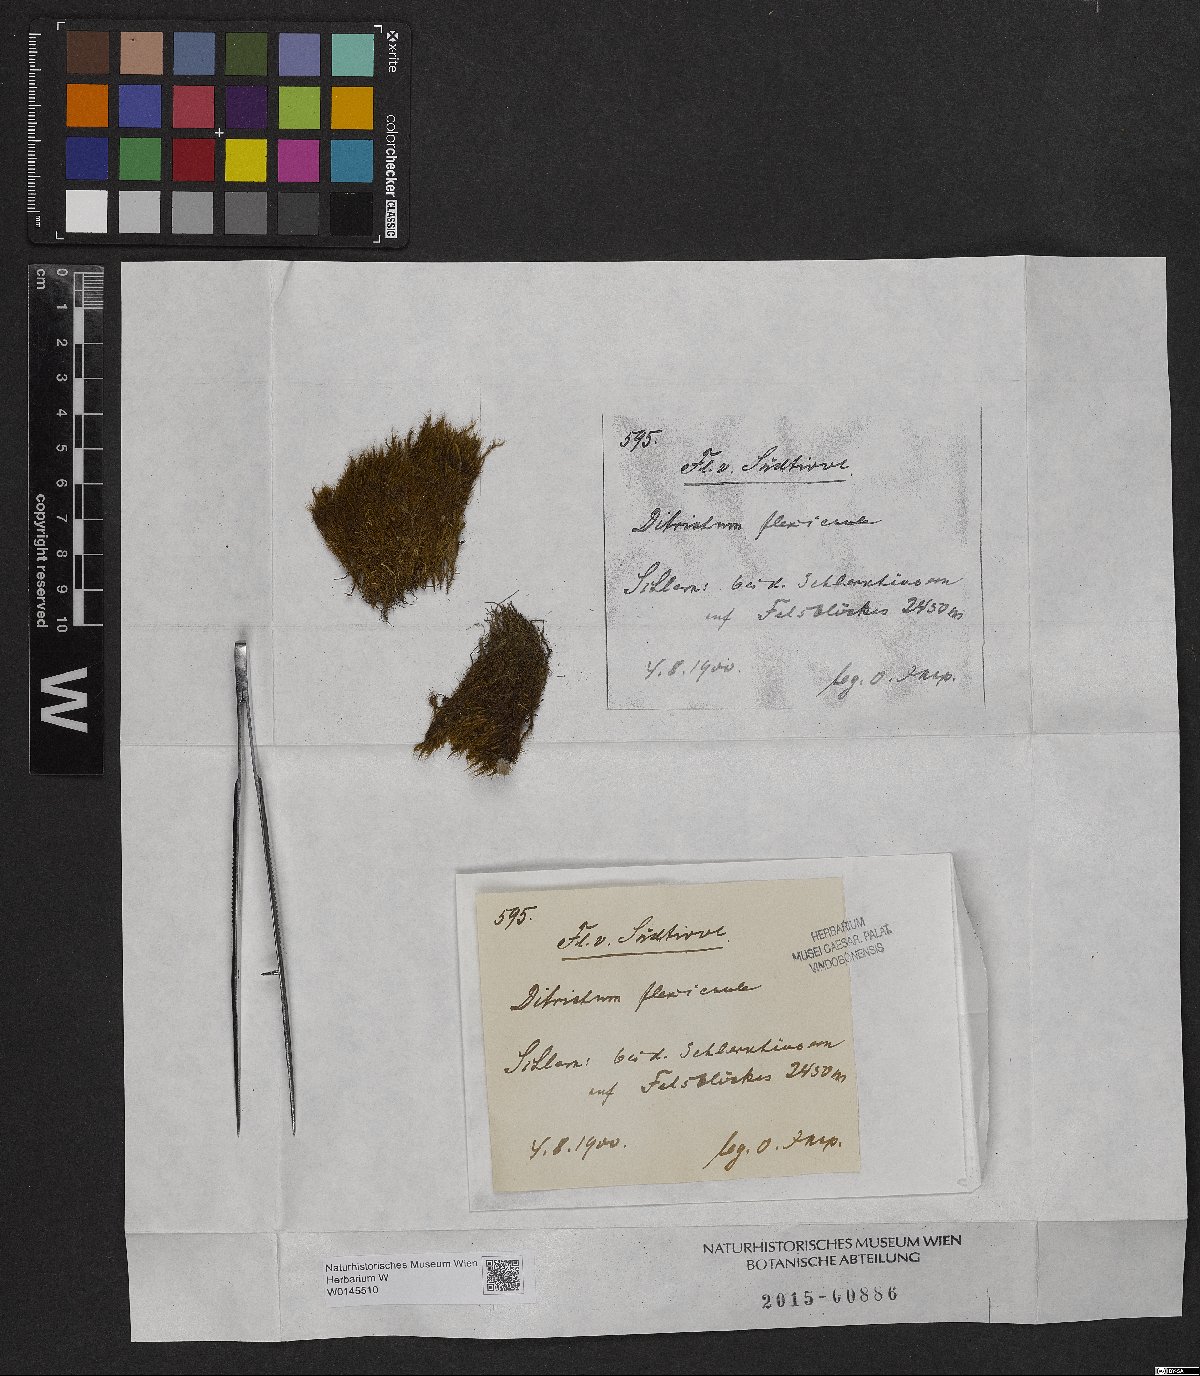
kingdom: Plantae
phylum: Bryophyta
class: Bryopsida
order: Scouleriales
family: Flexitrichaceae
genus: Flexitrichum
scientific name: Flexitrichum flexicaule
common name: Bendy ditrichum
